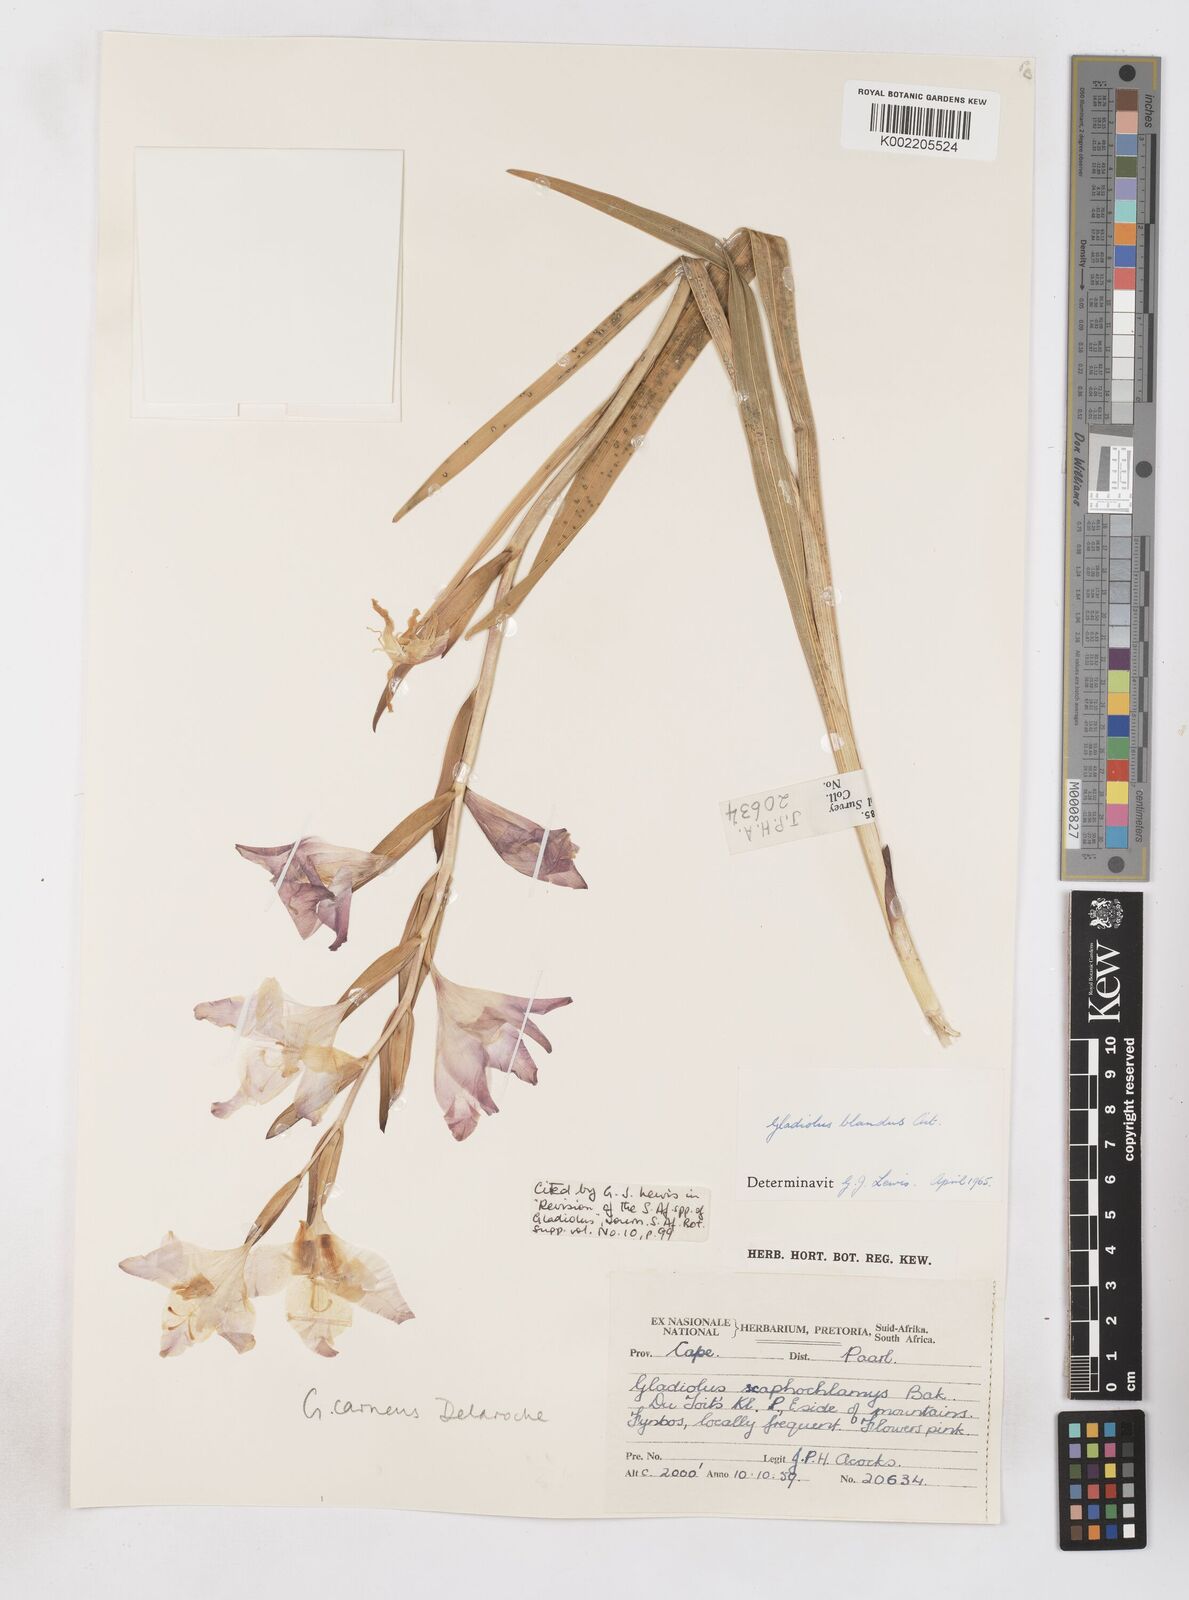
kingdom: Plantae
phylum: Tracheophyta
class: Liliopsida
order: Asparagales
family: Iridaceae
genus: Gladiolus
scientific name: Gladiolus carneus
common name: Painted-lady
